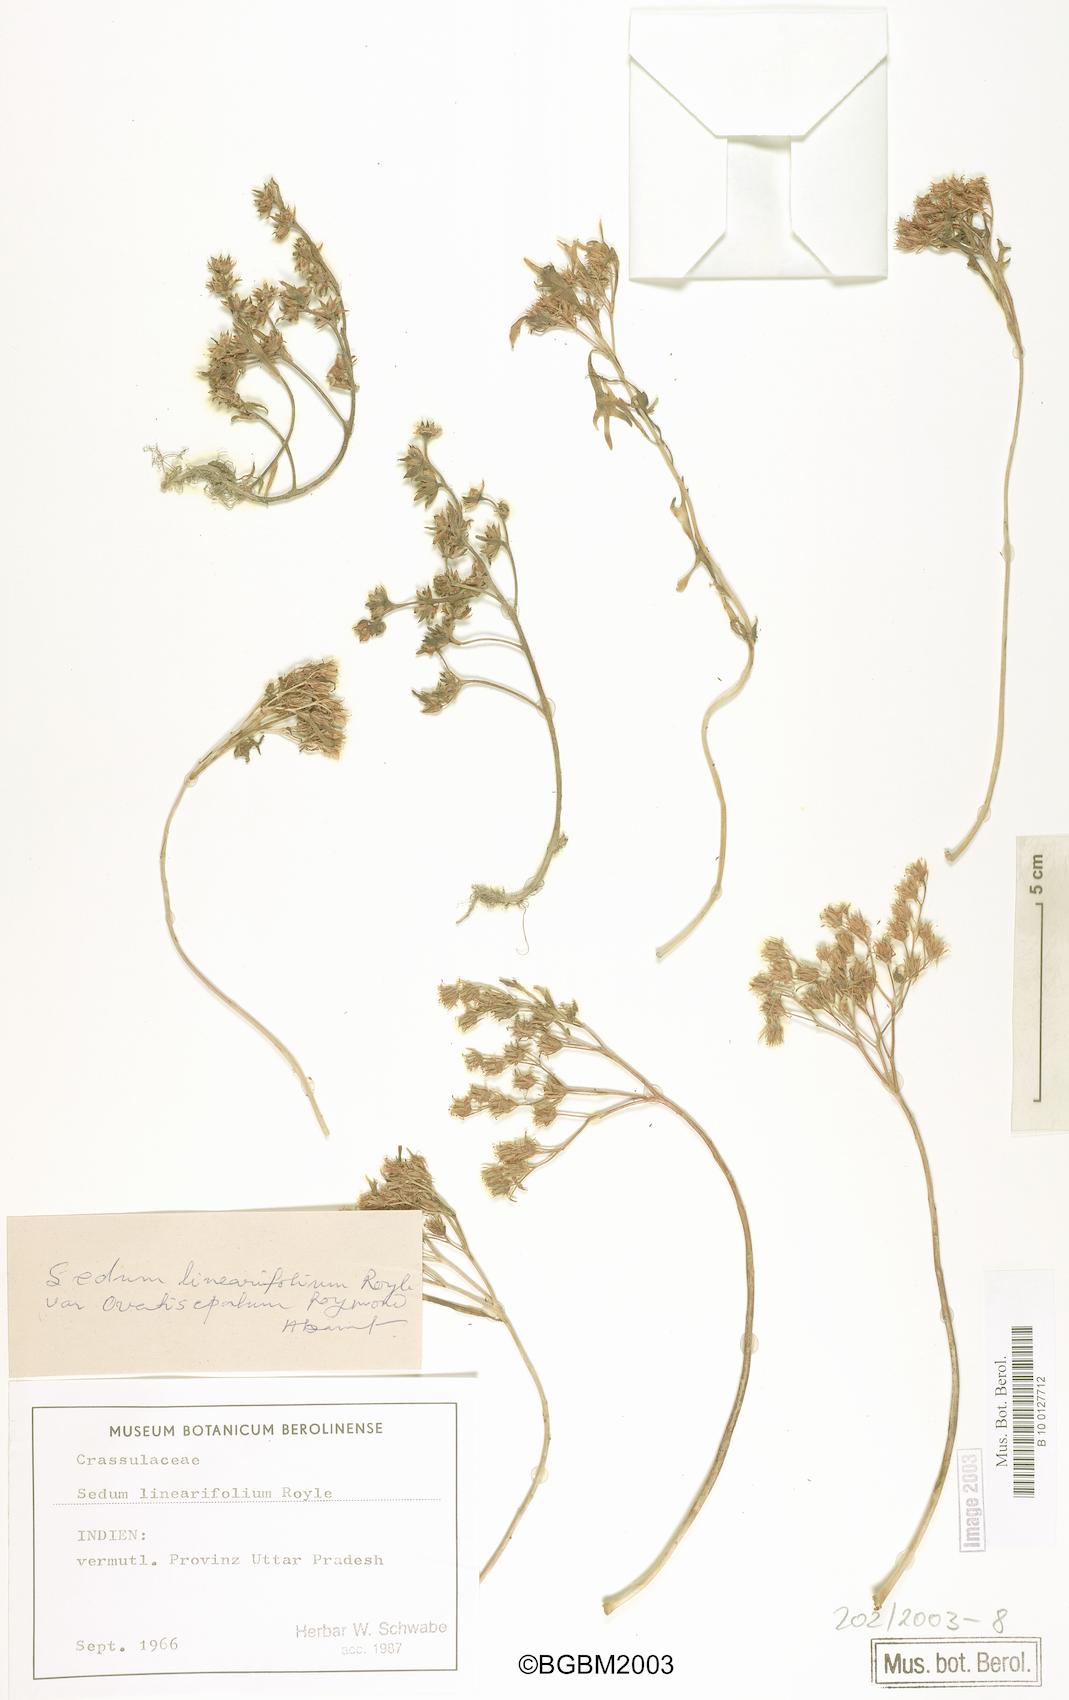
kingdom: Plantae
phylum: Tracheophyta
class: Magnoliopsida
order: Saxifragales
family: Crassulaceae
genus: Rhodiola
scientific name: Rhodiola sinuata
